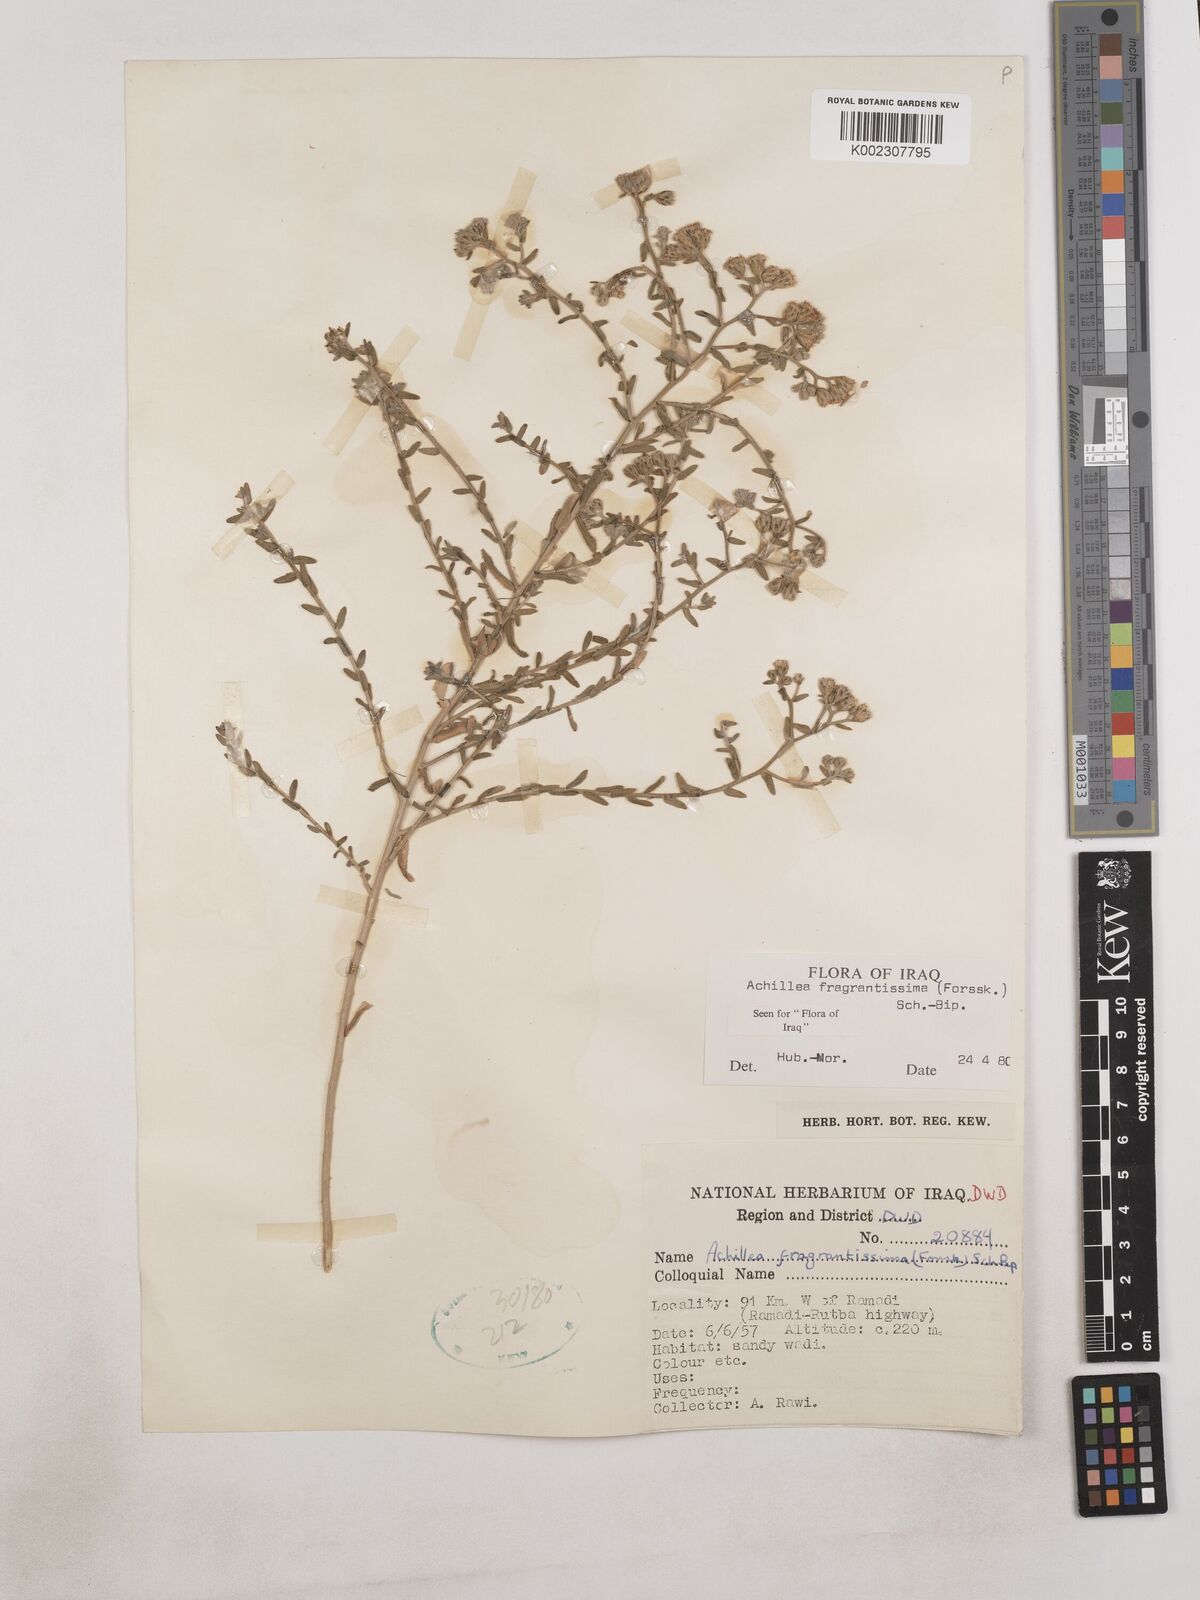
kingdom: Plantae
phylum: Tracheophyta
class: Magnoliopsida
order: Asterales
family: Asteraceae
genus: Achillea
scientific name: Achillea fragrantissima
